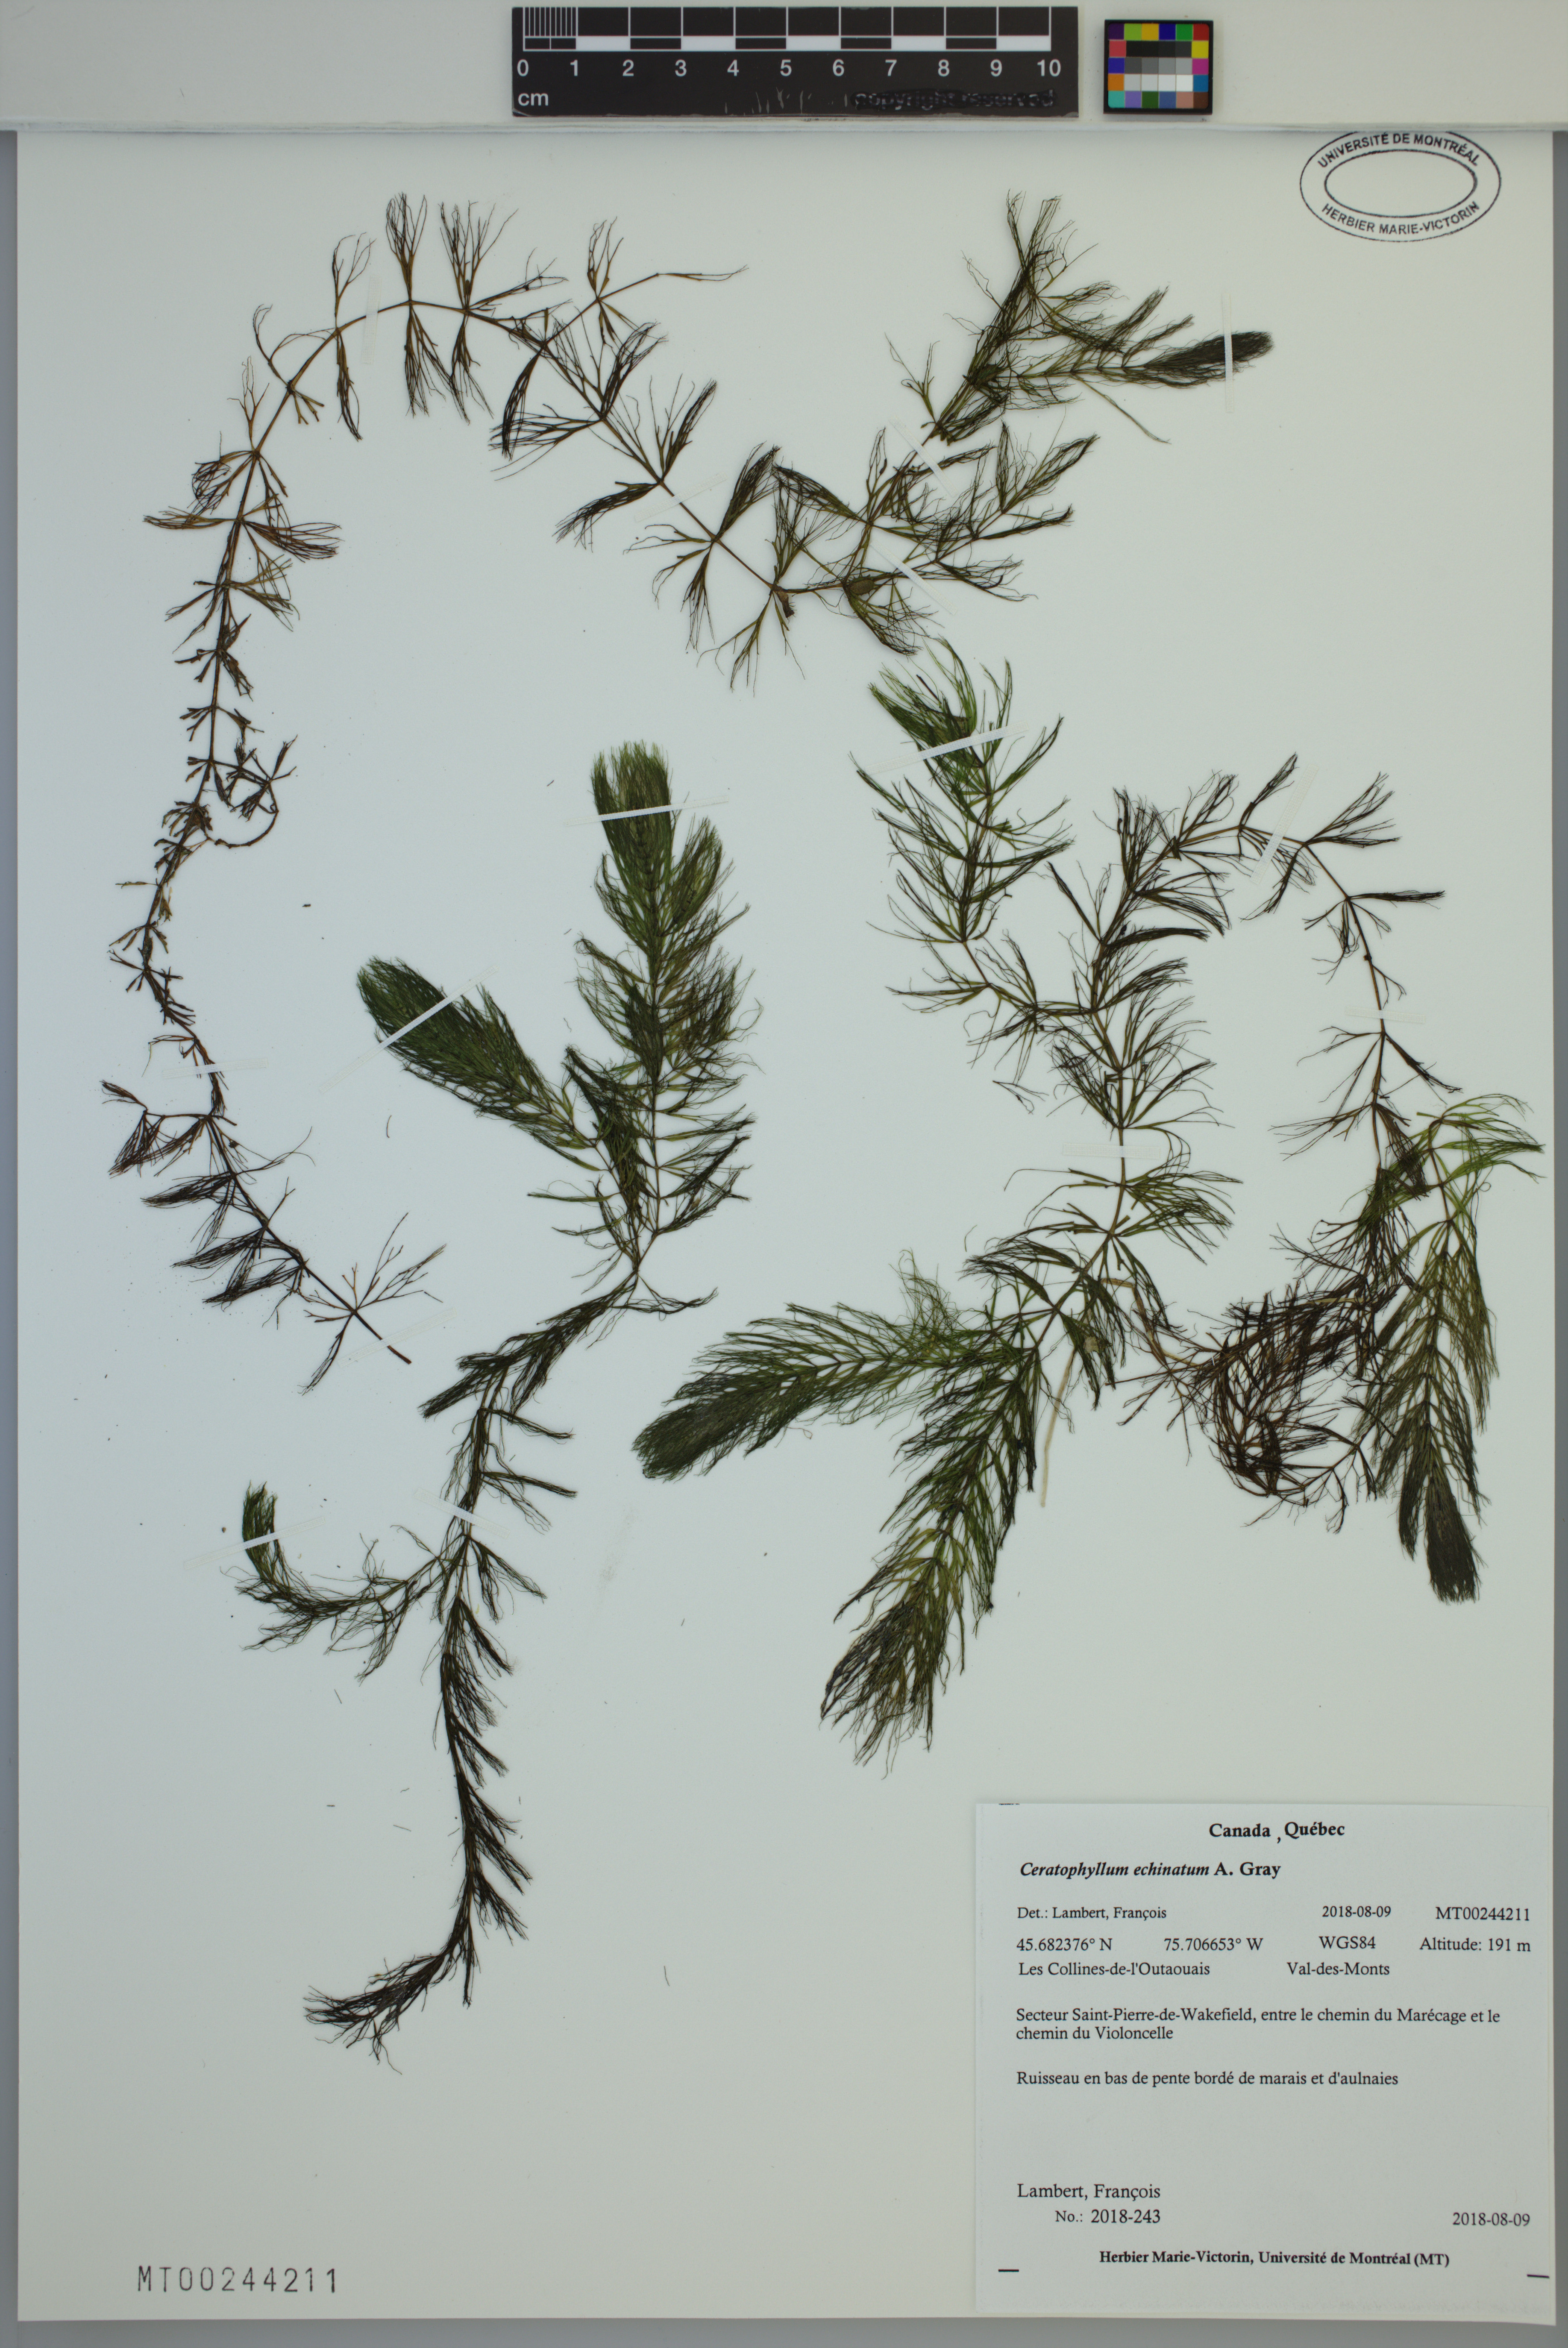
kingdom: Plantae
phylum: Tracheophyta
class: Magnoliopsida
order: Ceratophyllales
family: Ceratophyllaceae
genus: Ceratophyllum
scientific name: Ceratophyllum echinatum
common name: Prickly coontail
